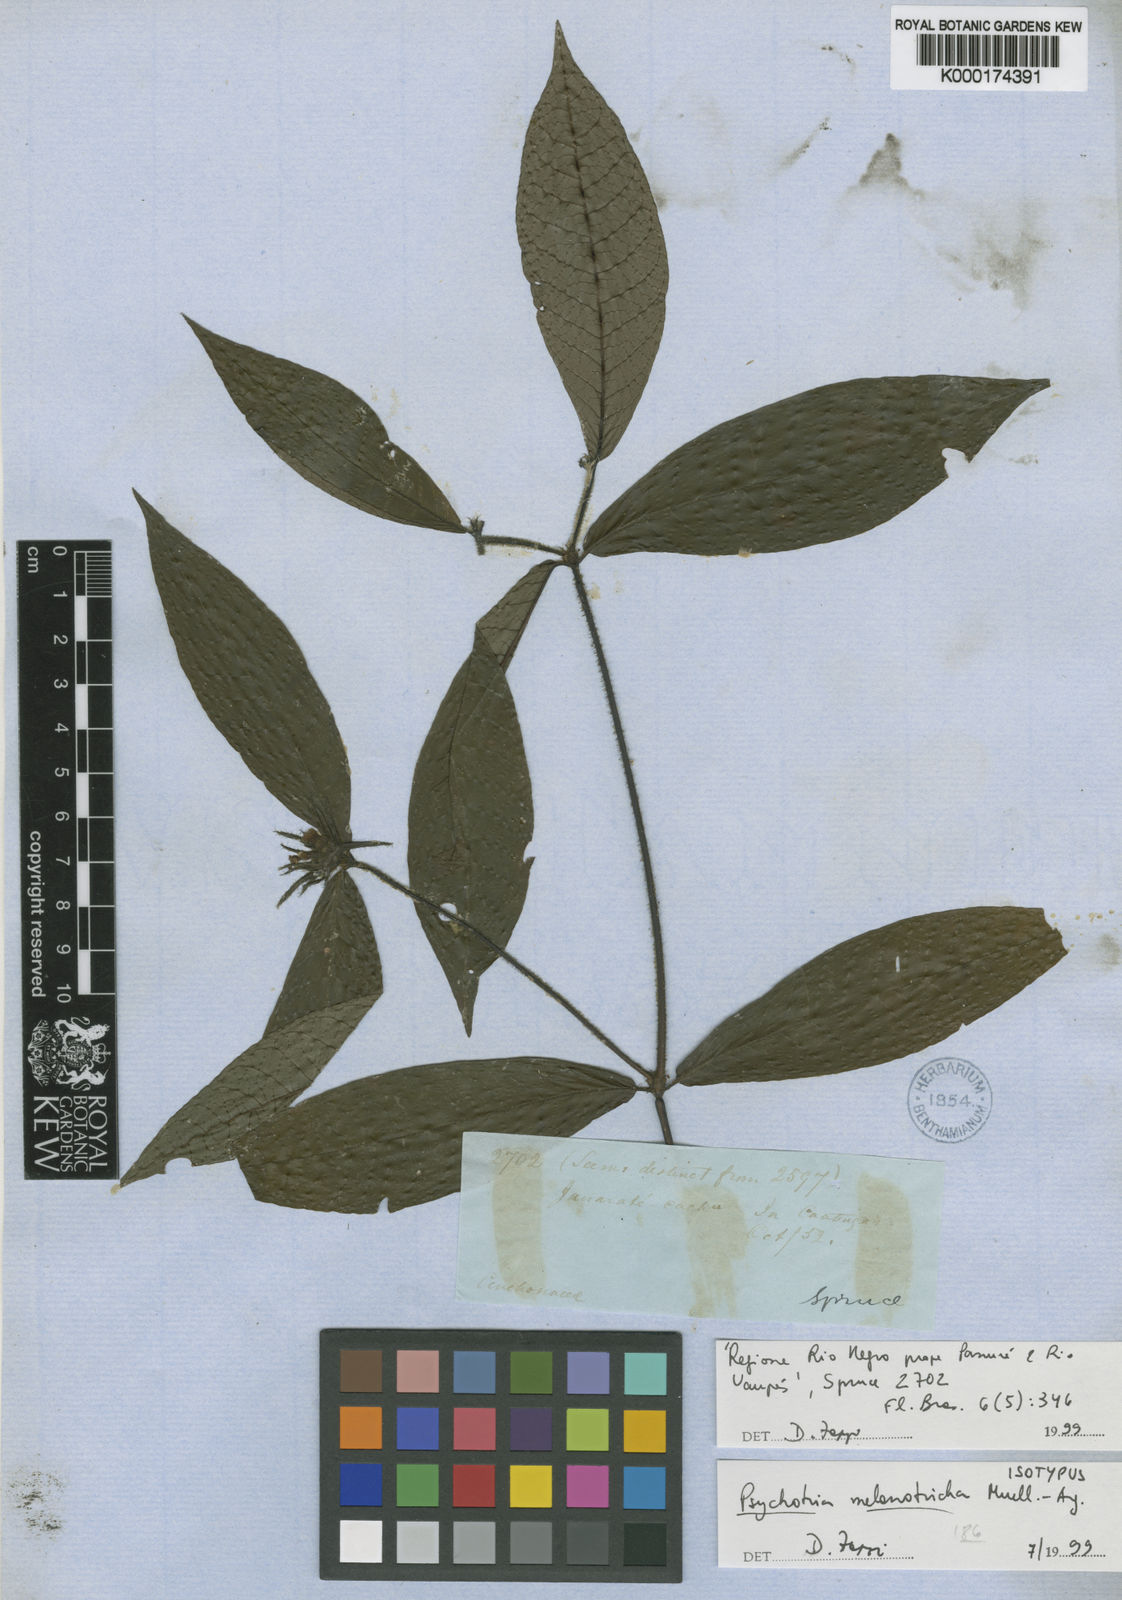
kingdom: Plantae
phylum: Tracheophyta
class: Magnoliopsida
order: Gentianales
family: Rubiaceae
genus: Psychotria
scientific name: Psychotria
